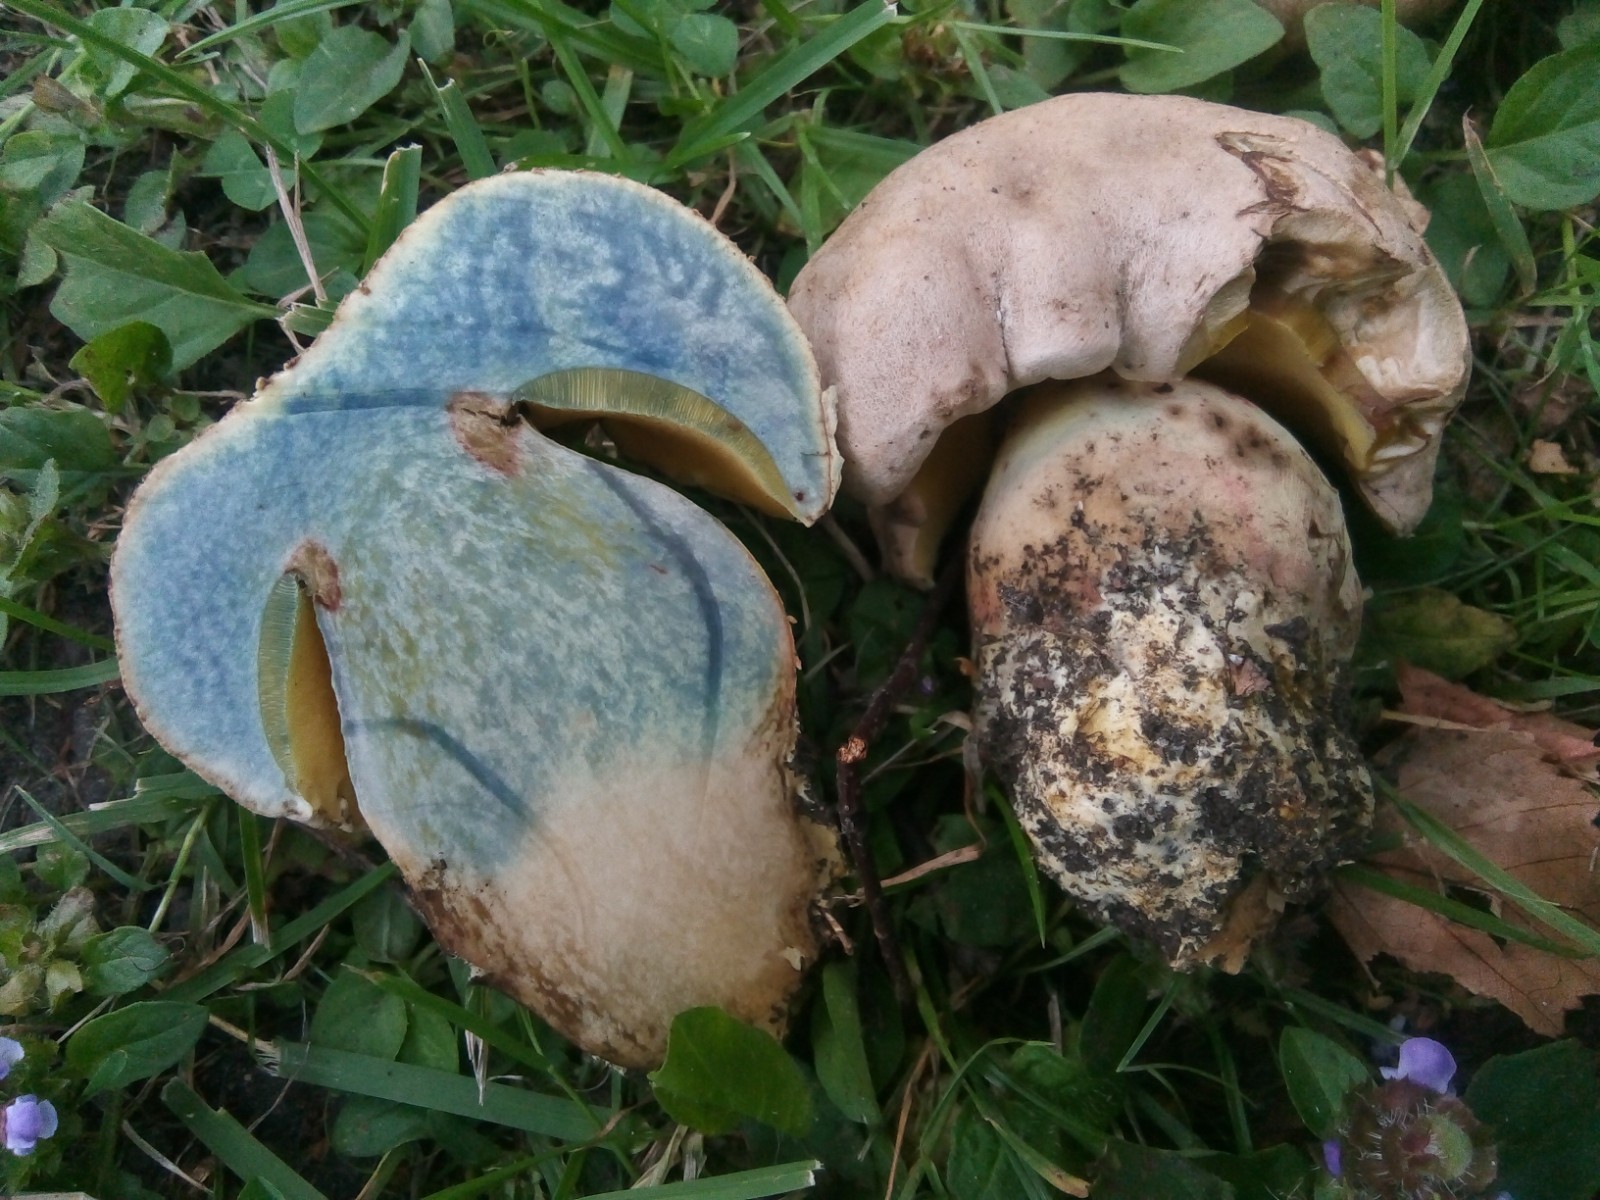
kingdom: Fungi
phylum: Basidiomycota
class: Agaricomycetes
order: Boletales
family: Boletaceae
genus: Caloboletus
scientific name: Caloboletus radicans
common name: rod-rørhat
